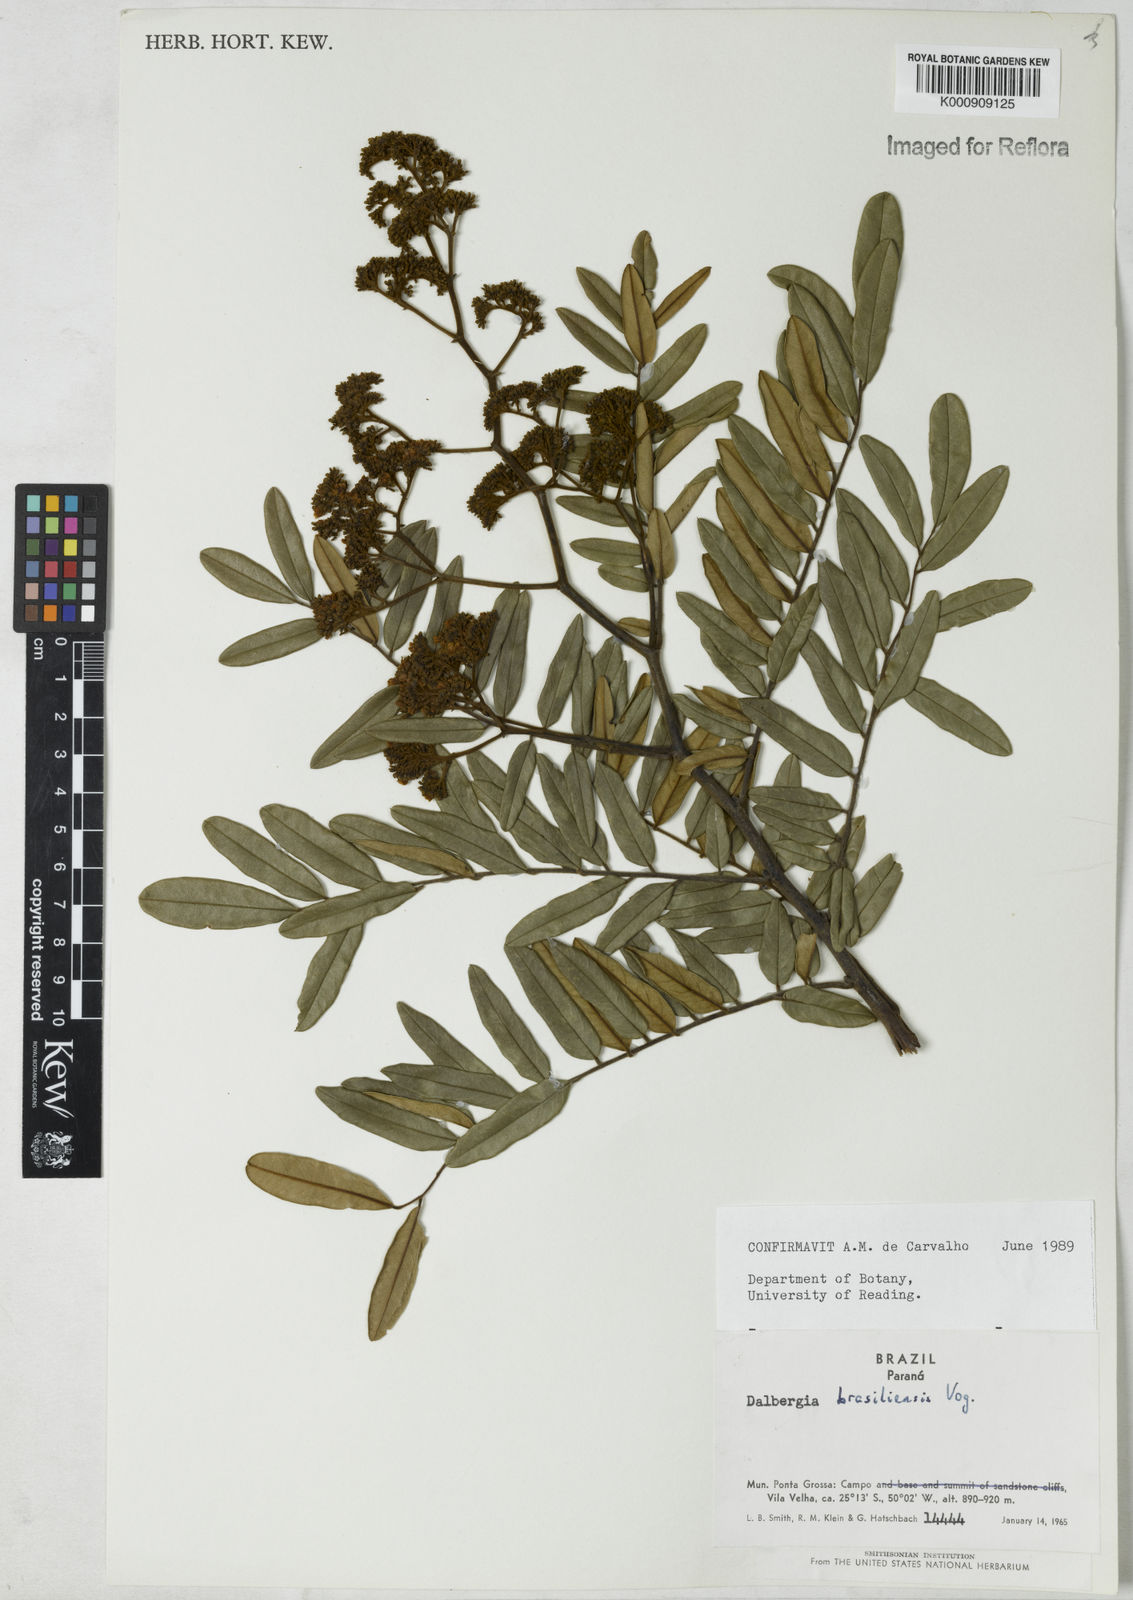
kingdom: Plantae
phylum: Tracheophyta
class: Magnoliopsida
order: Fabales
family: Fabaceae
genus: Dalbergia
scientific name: Dalbergia brasiliensis
